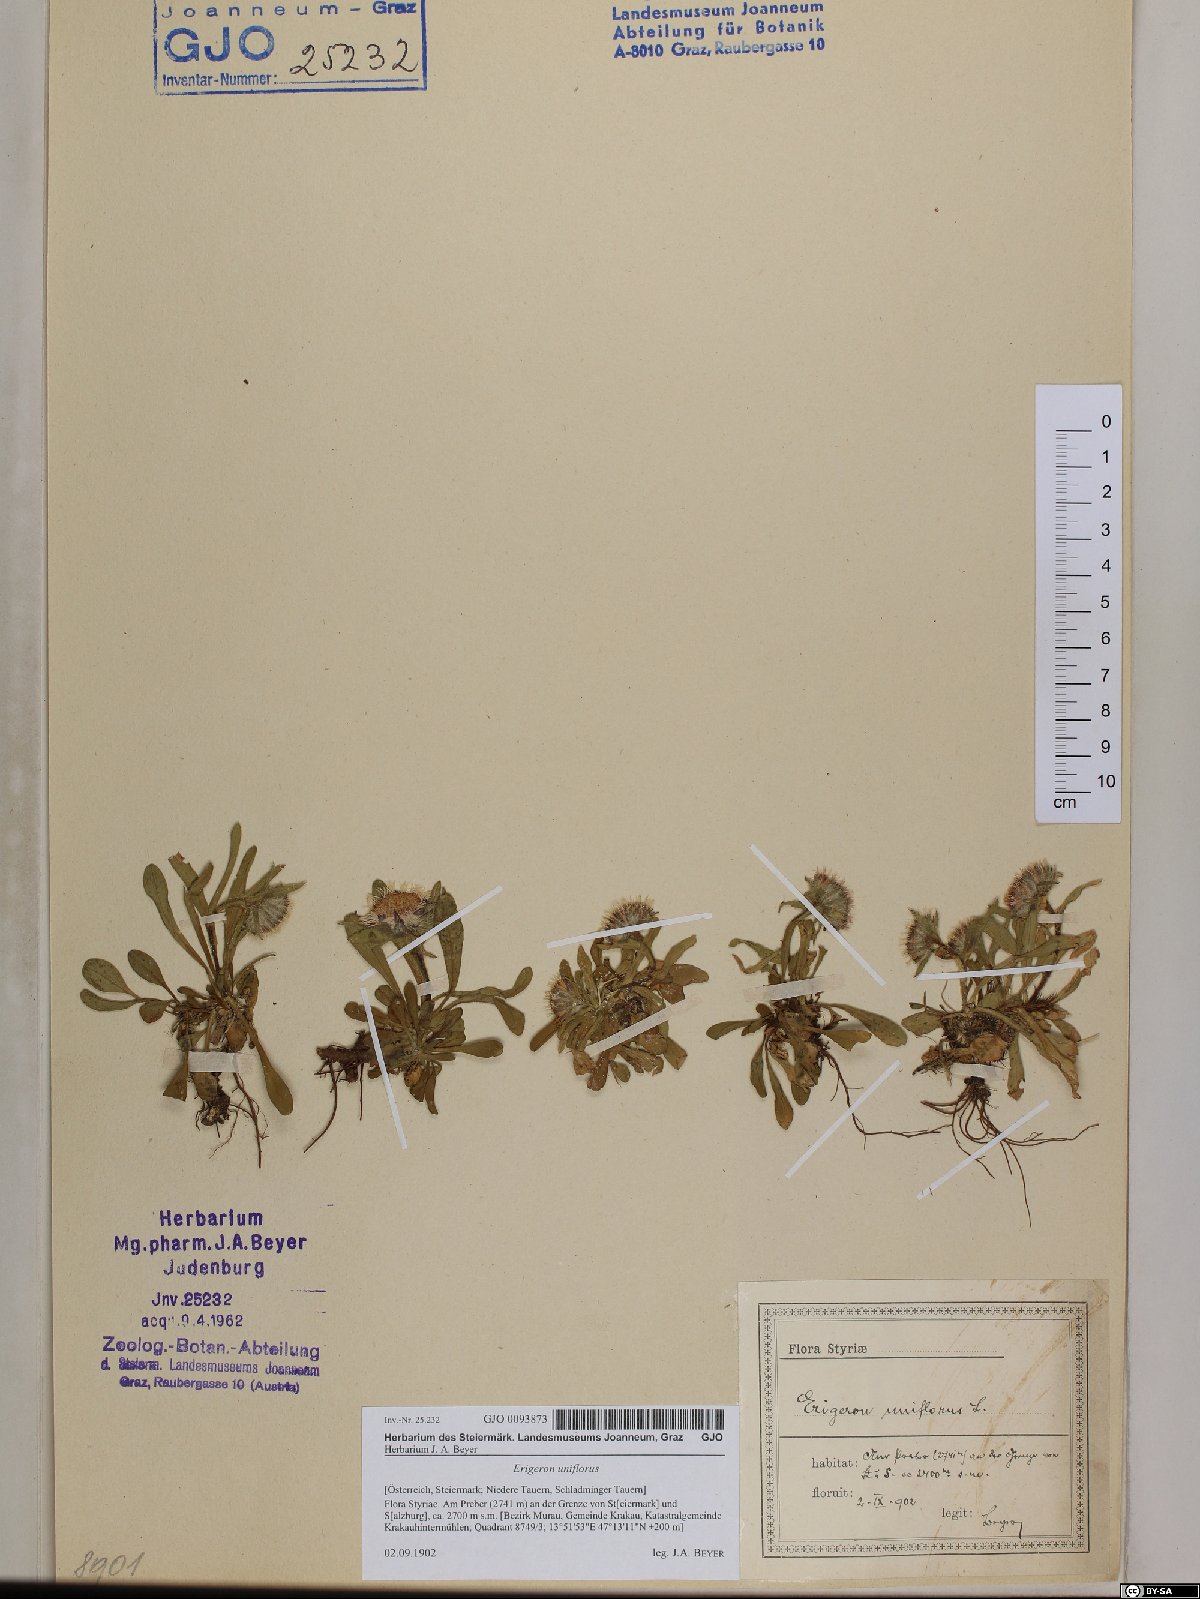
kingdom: Plantae
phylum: Tracheophyta
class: Magnoliopsida
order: Asterales
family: Asteraceae
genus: Erigeron
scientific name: Erigeron uniflorus
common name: Northern daisy
